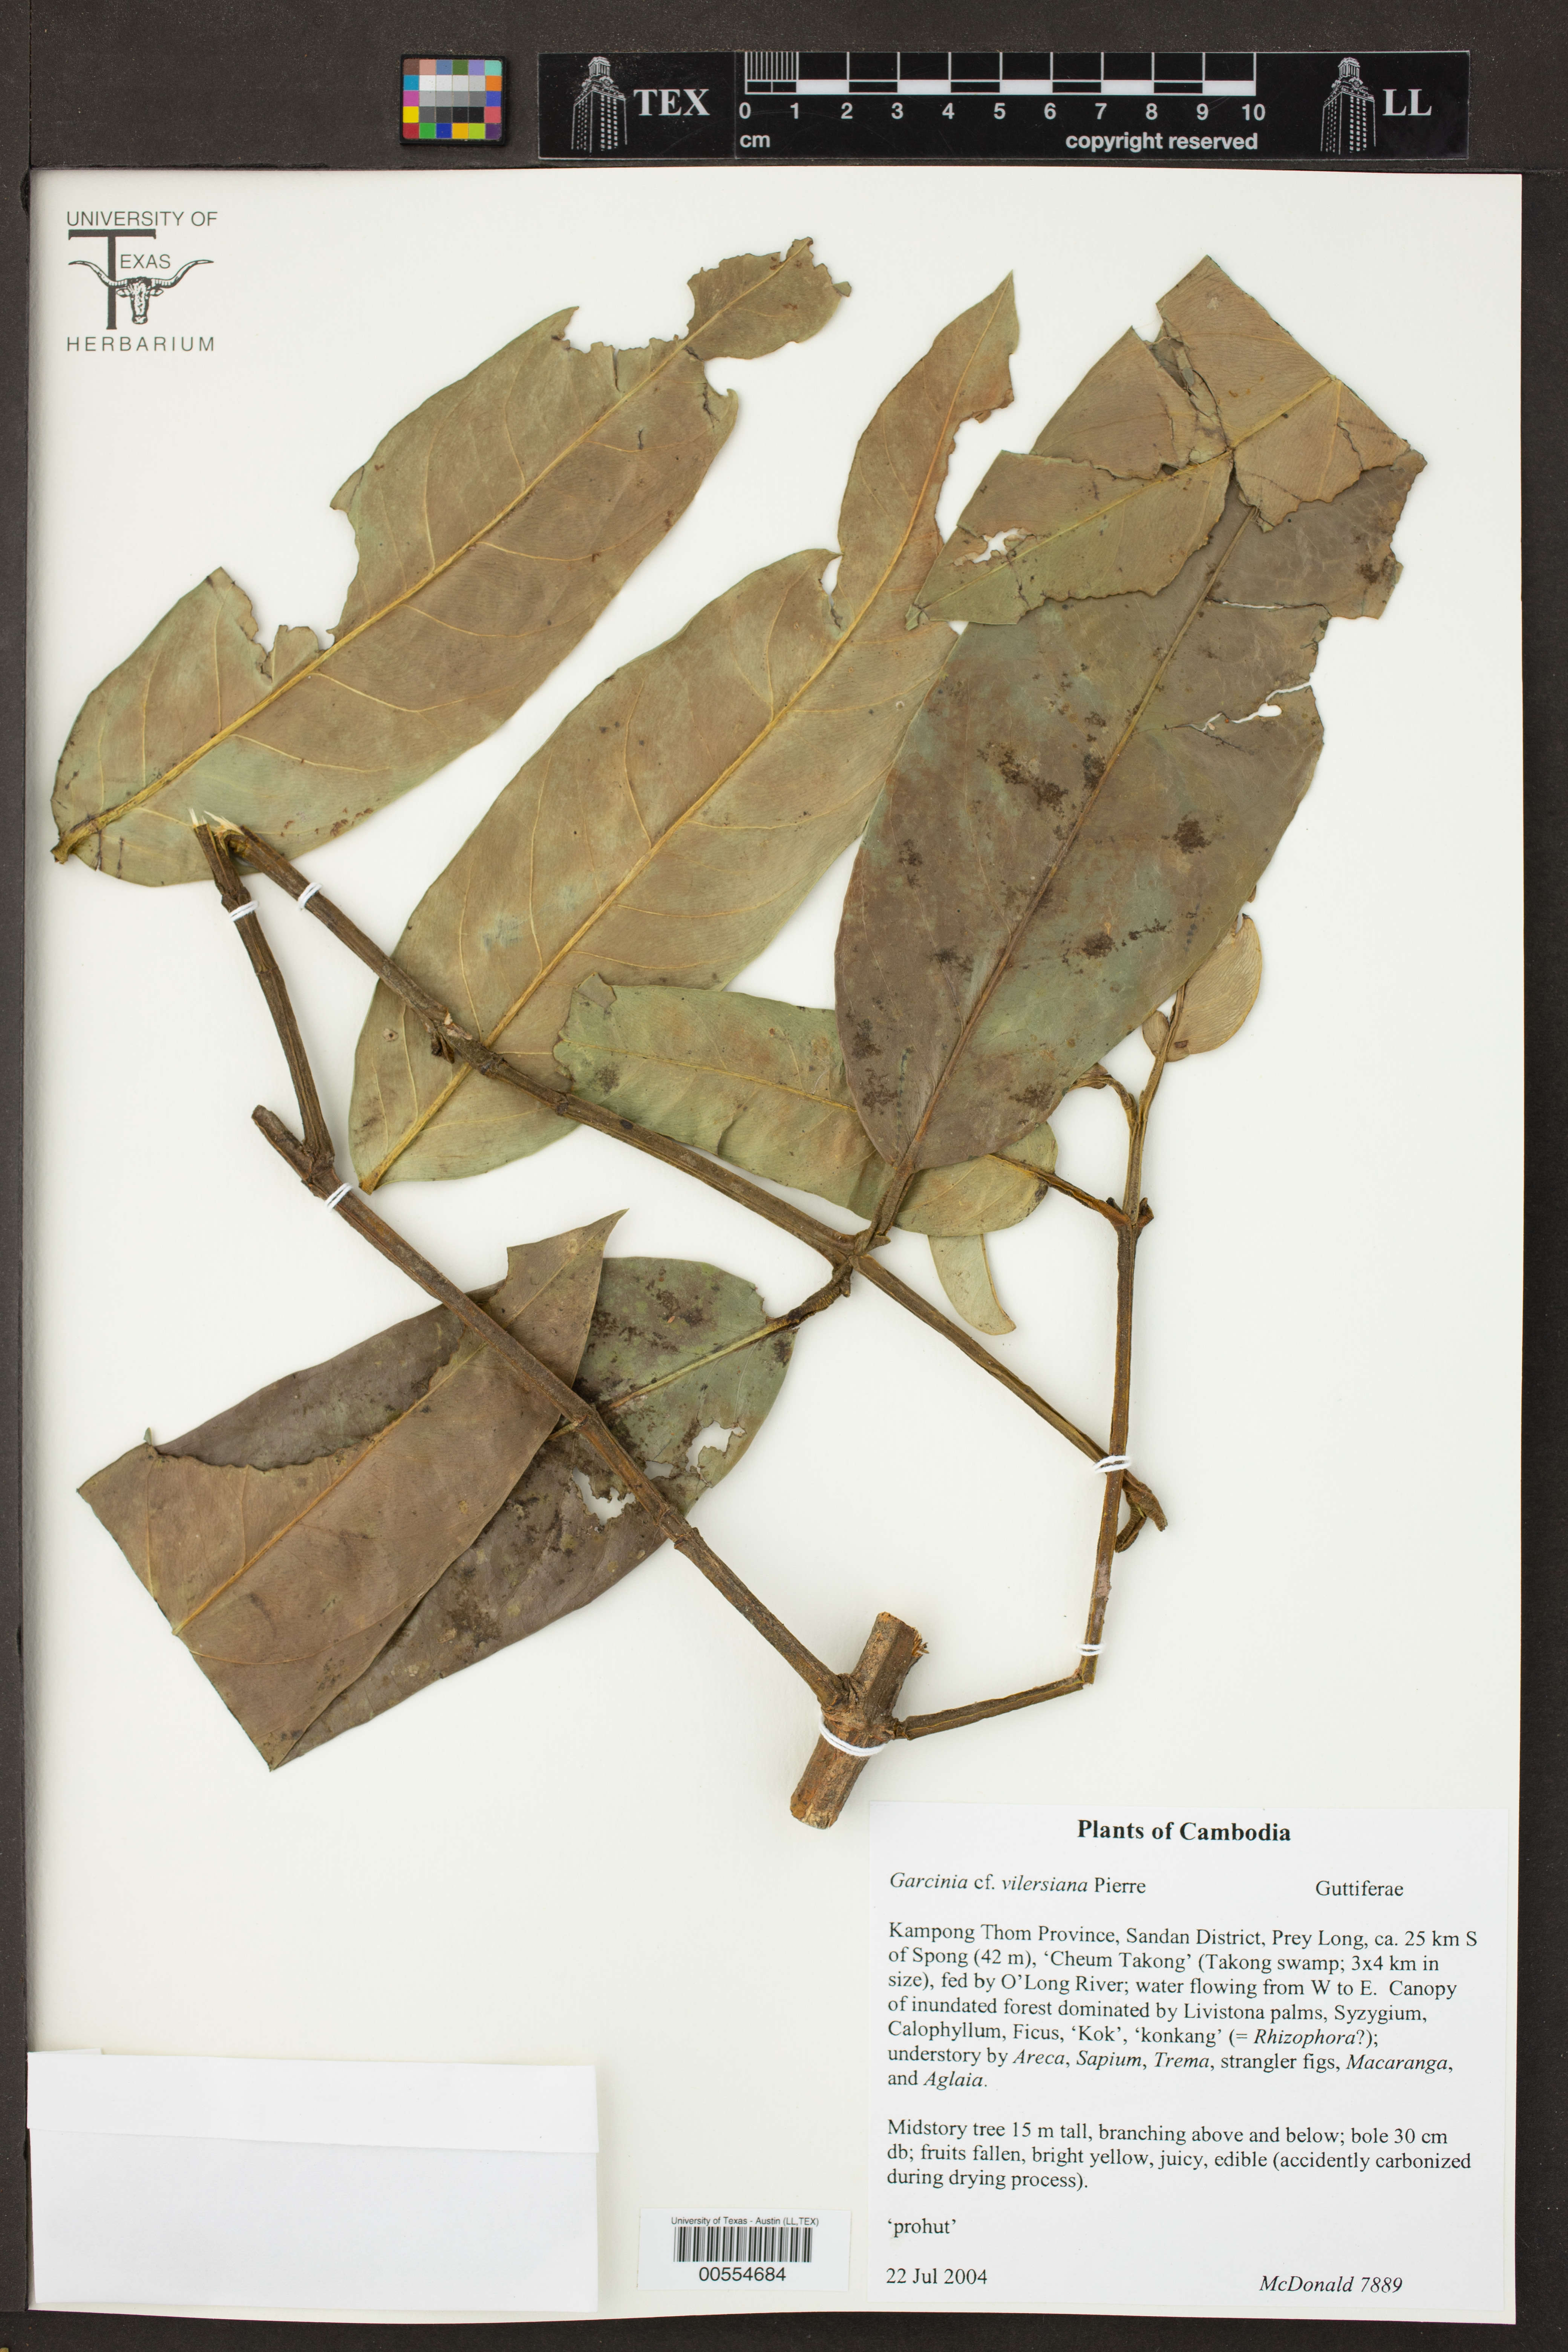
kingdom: Plantae
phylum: Tracheophyta
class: Magnoliopsida
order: Malpighiales
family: Clusiaceae
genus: Garcinia
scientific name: Garcinia vilersiana
